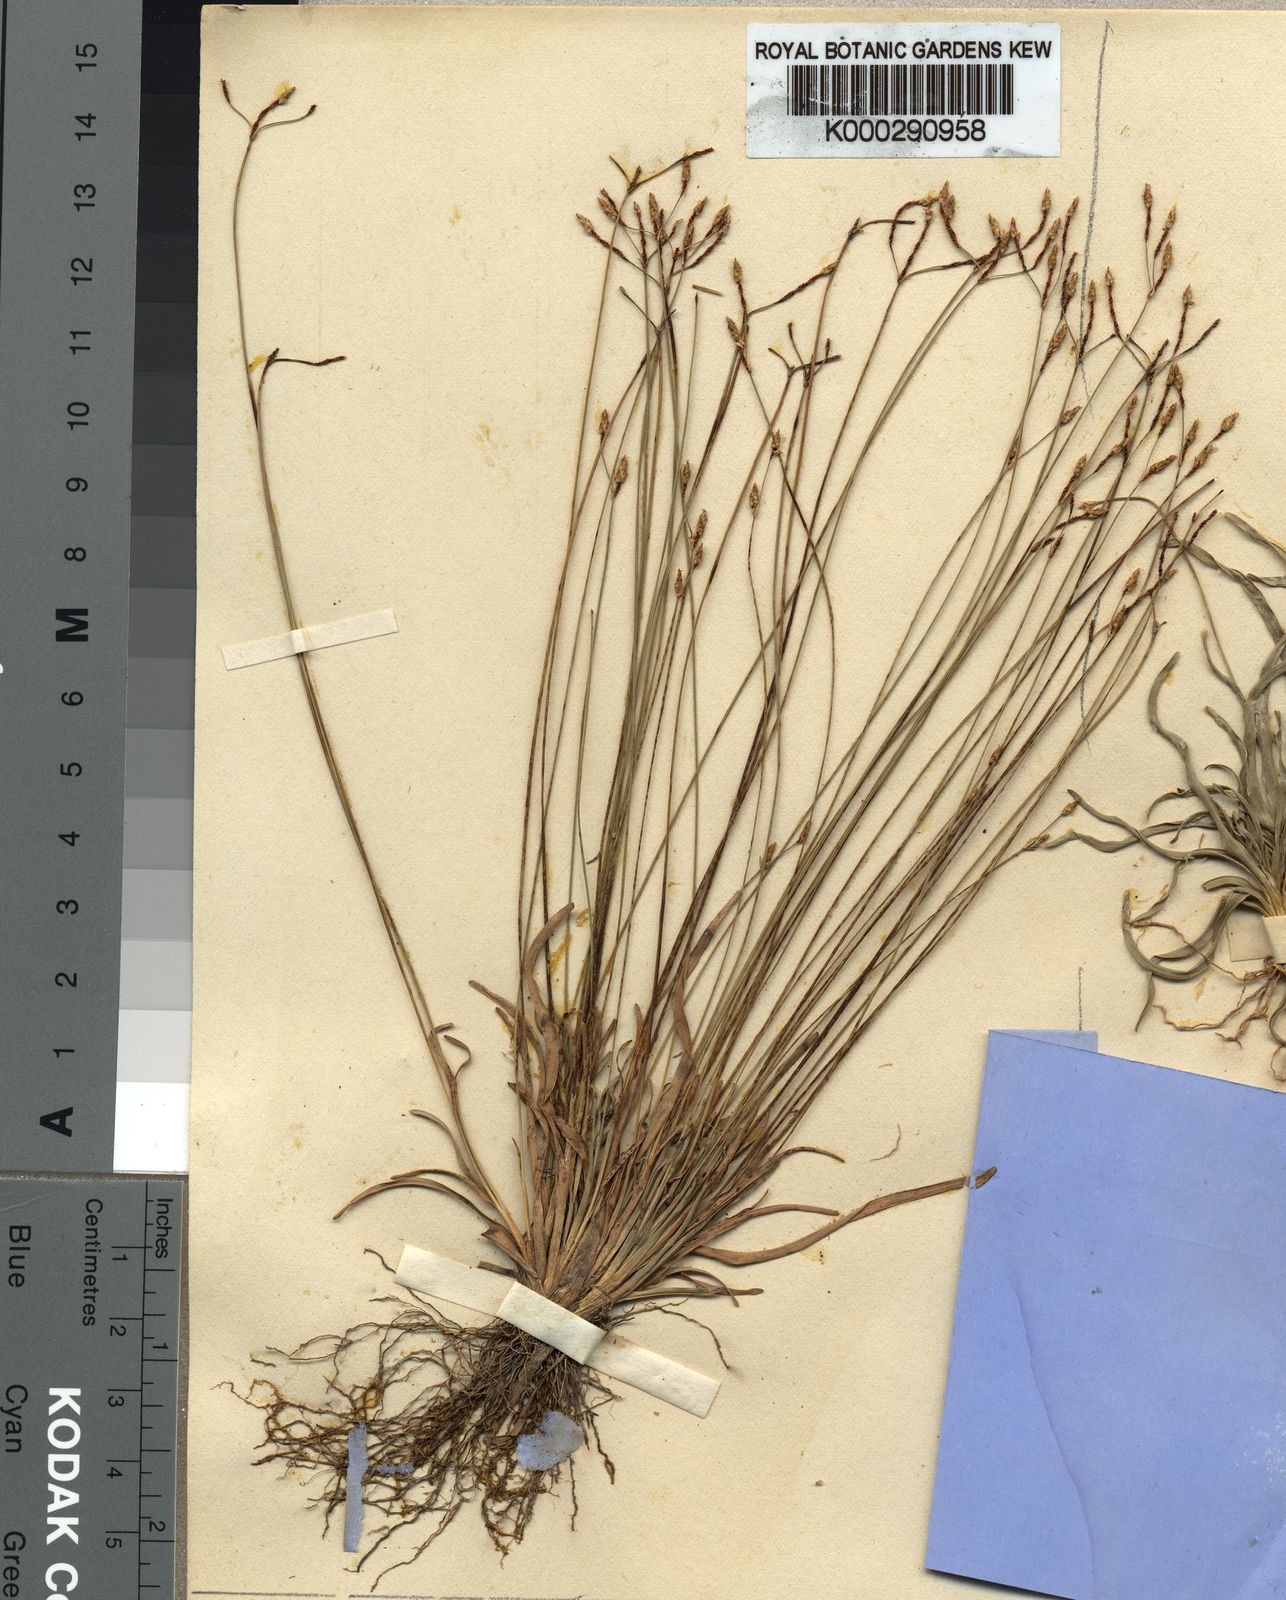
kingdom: Plantae
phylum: Tracheophyta
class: Liliopsida
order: Poales
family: Cyperaceae
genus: Fimbristylis
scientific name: Fimbristylis obtusata
